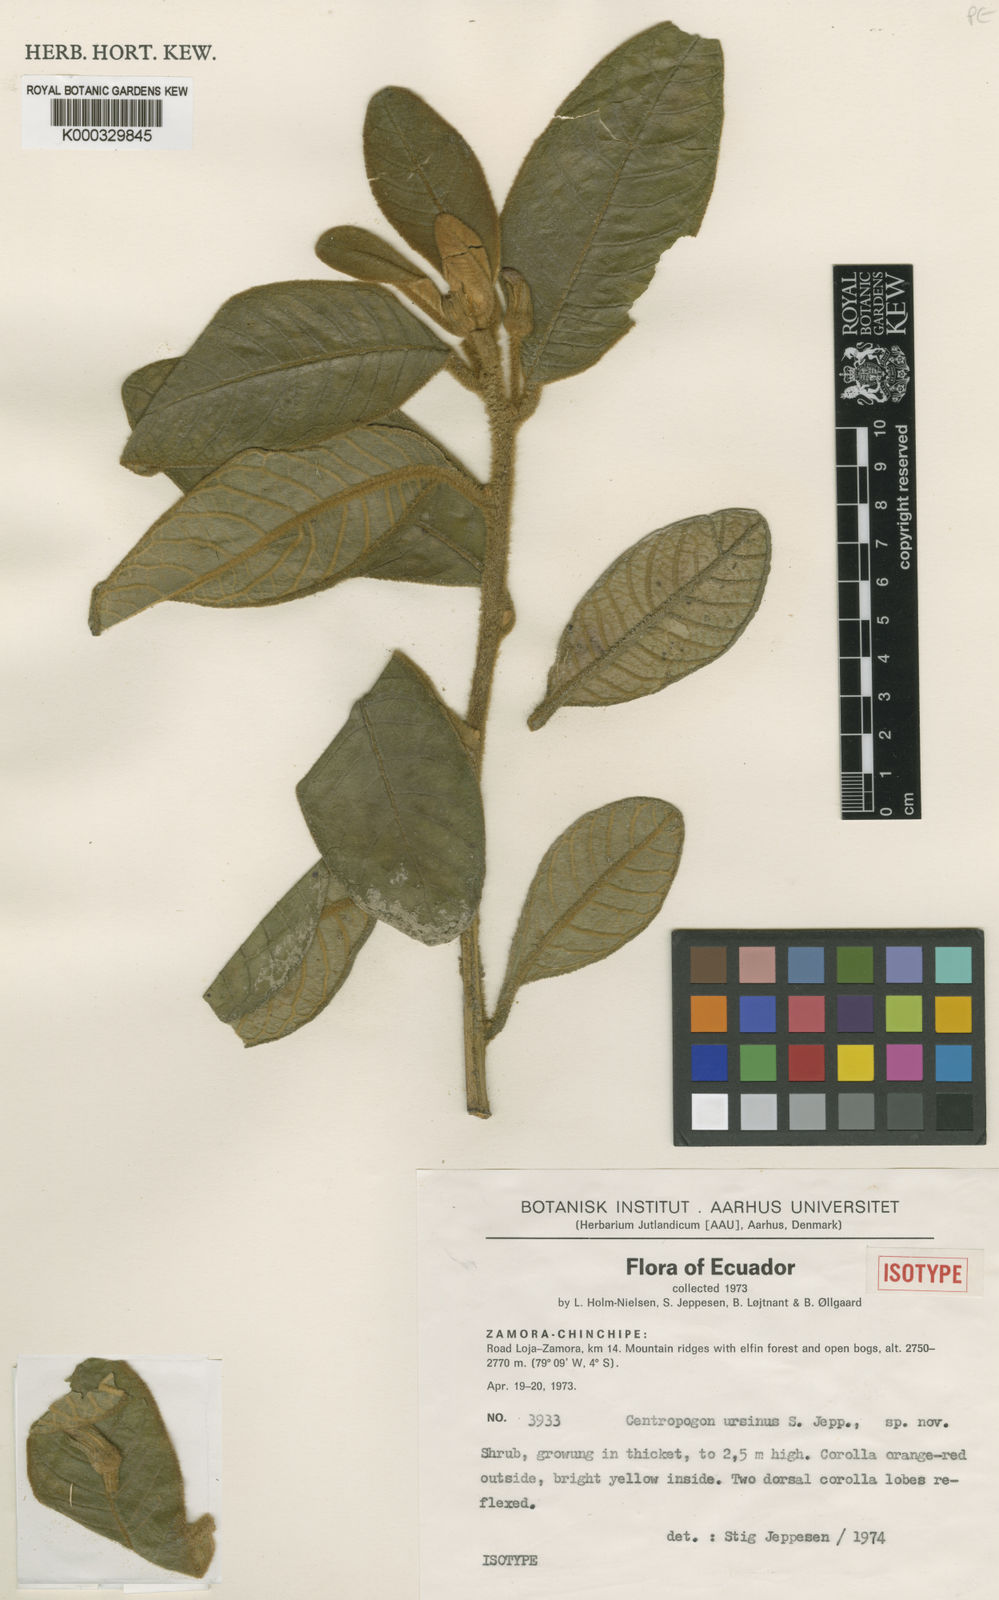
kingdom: Plantae
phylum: Tracheophyta
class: Magnoliopsida
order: Asterales
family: Campanulaceae
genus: Centropogon
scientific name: Centropogon ursinus
